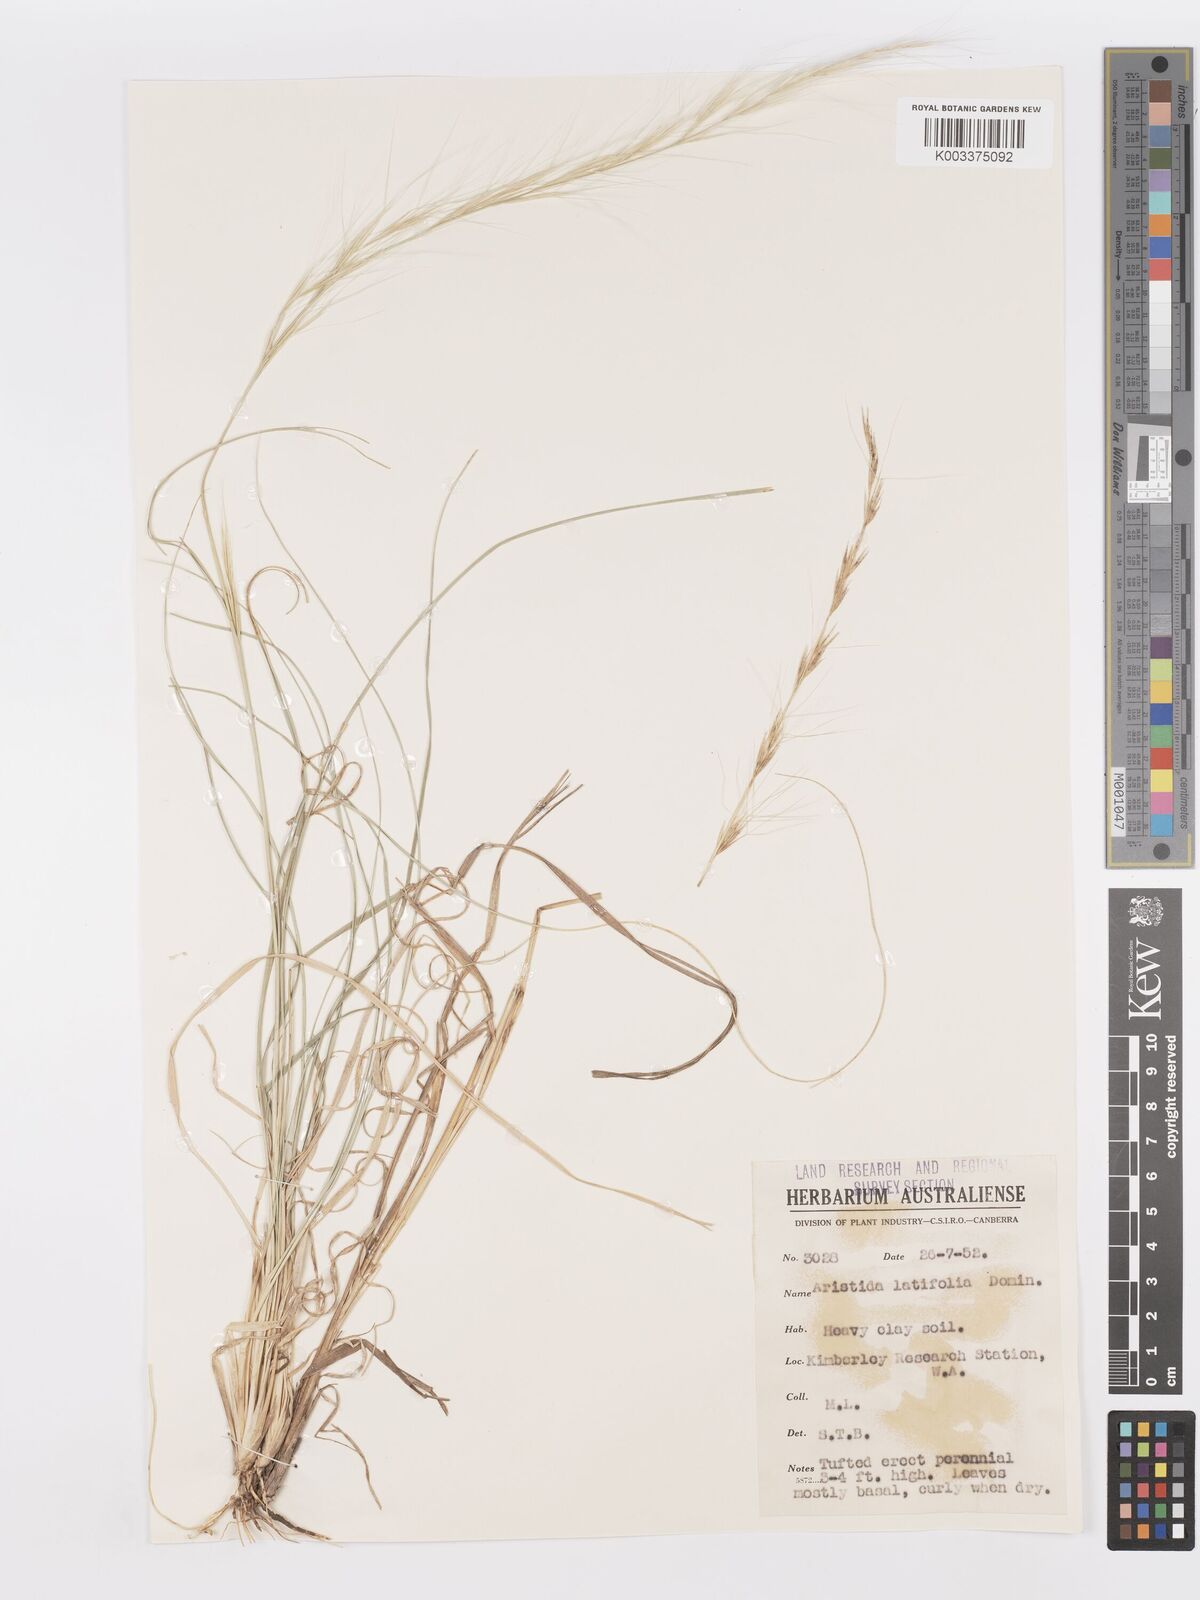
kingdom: Plantae
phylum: Tracheophyta
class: Liliopsida
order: Poales
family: Poaceae
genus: Aristida
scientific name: Aristida latifolia
